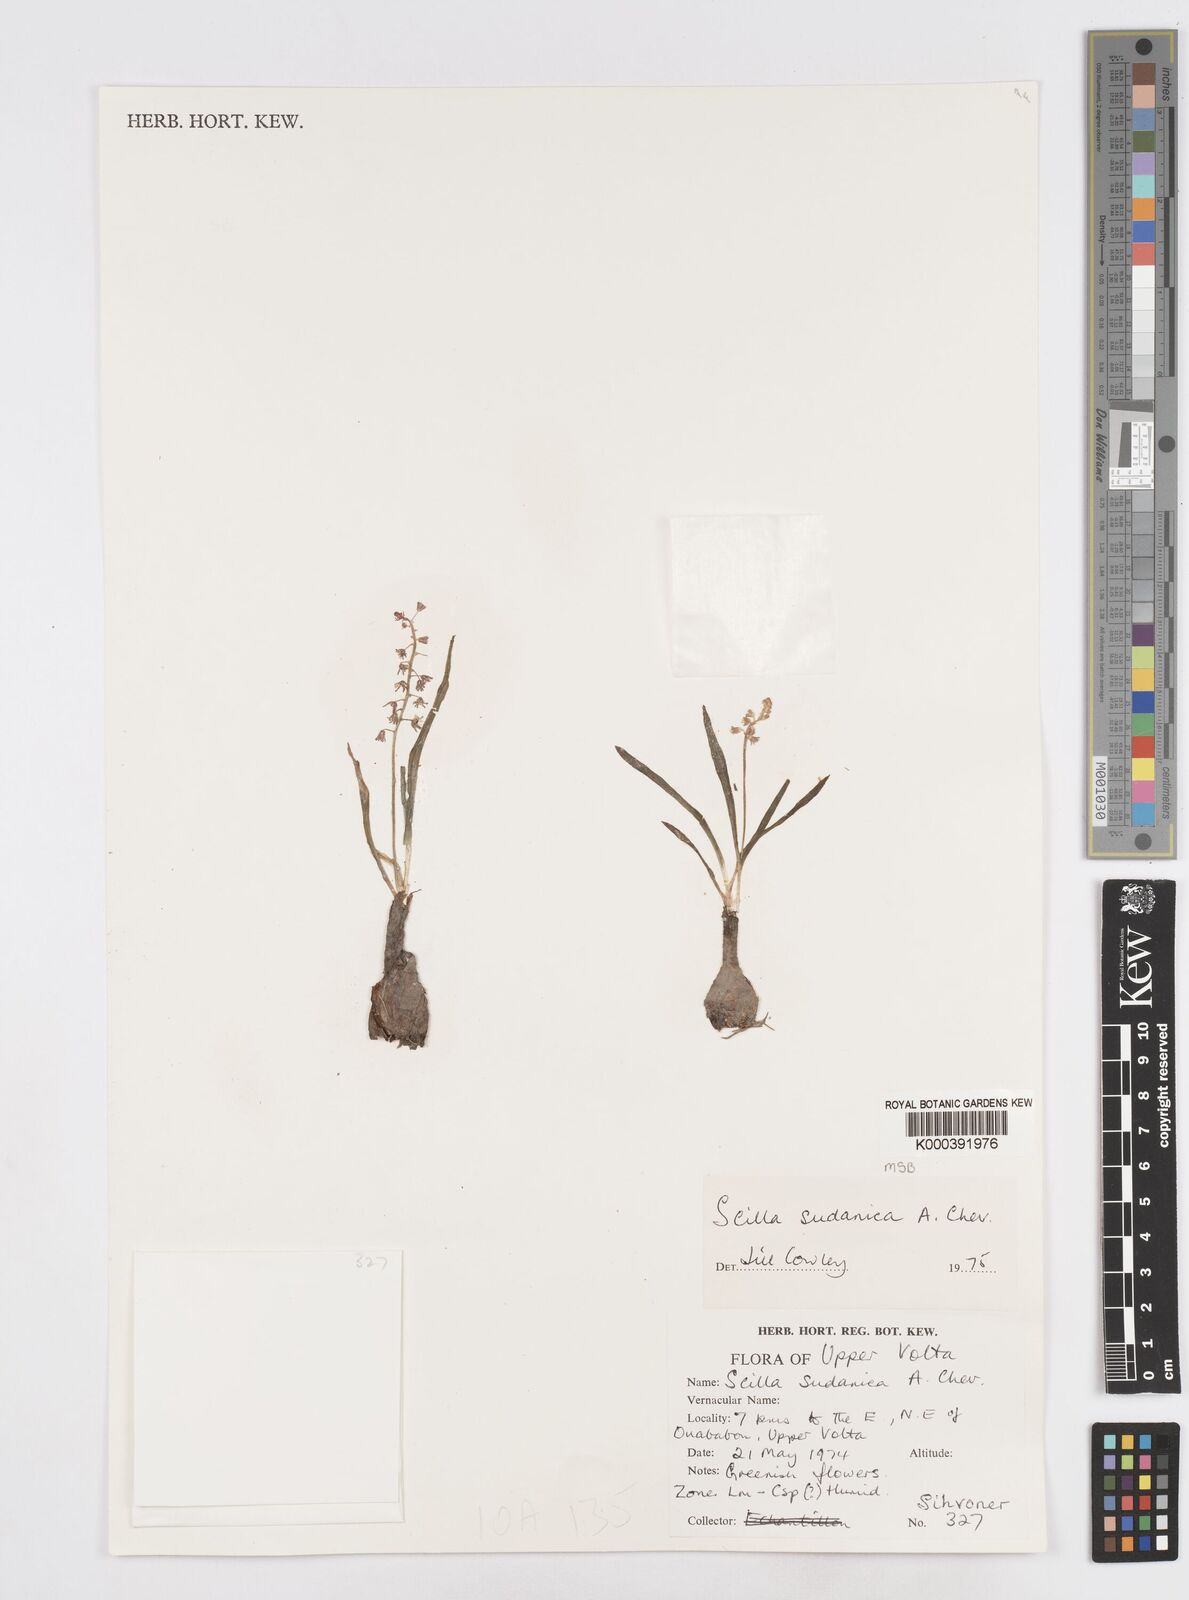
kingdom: Plantae
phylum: Tracheophyta
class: Liliopsida
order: Asparagales
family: Asparagaceae
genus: Ledebouria
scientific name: Ledebouria sudanica
